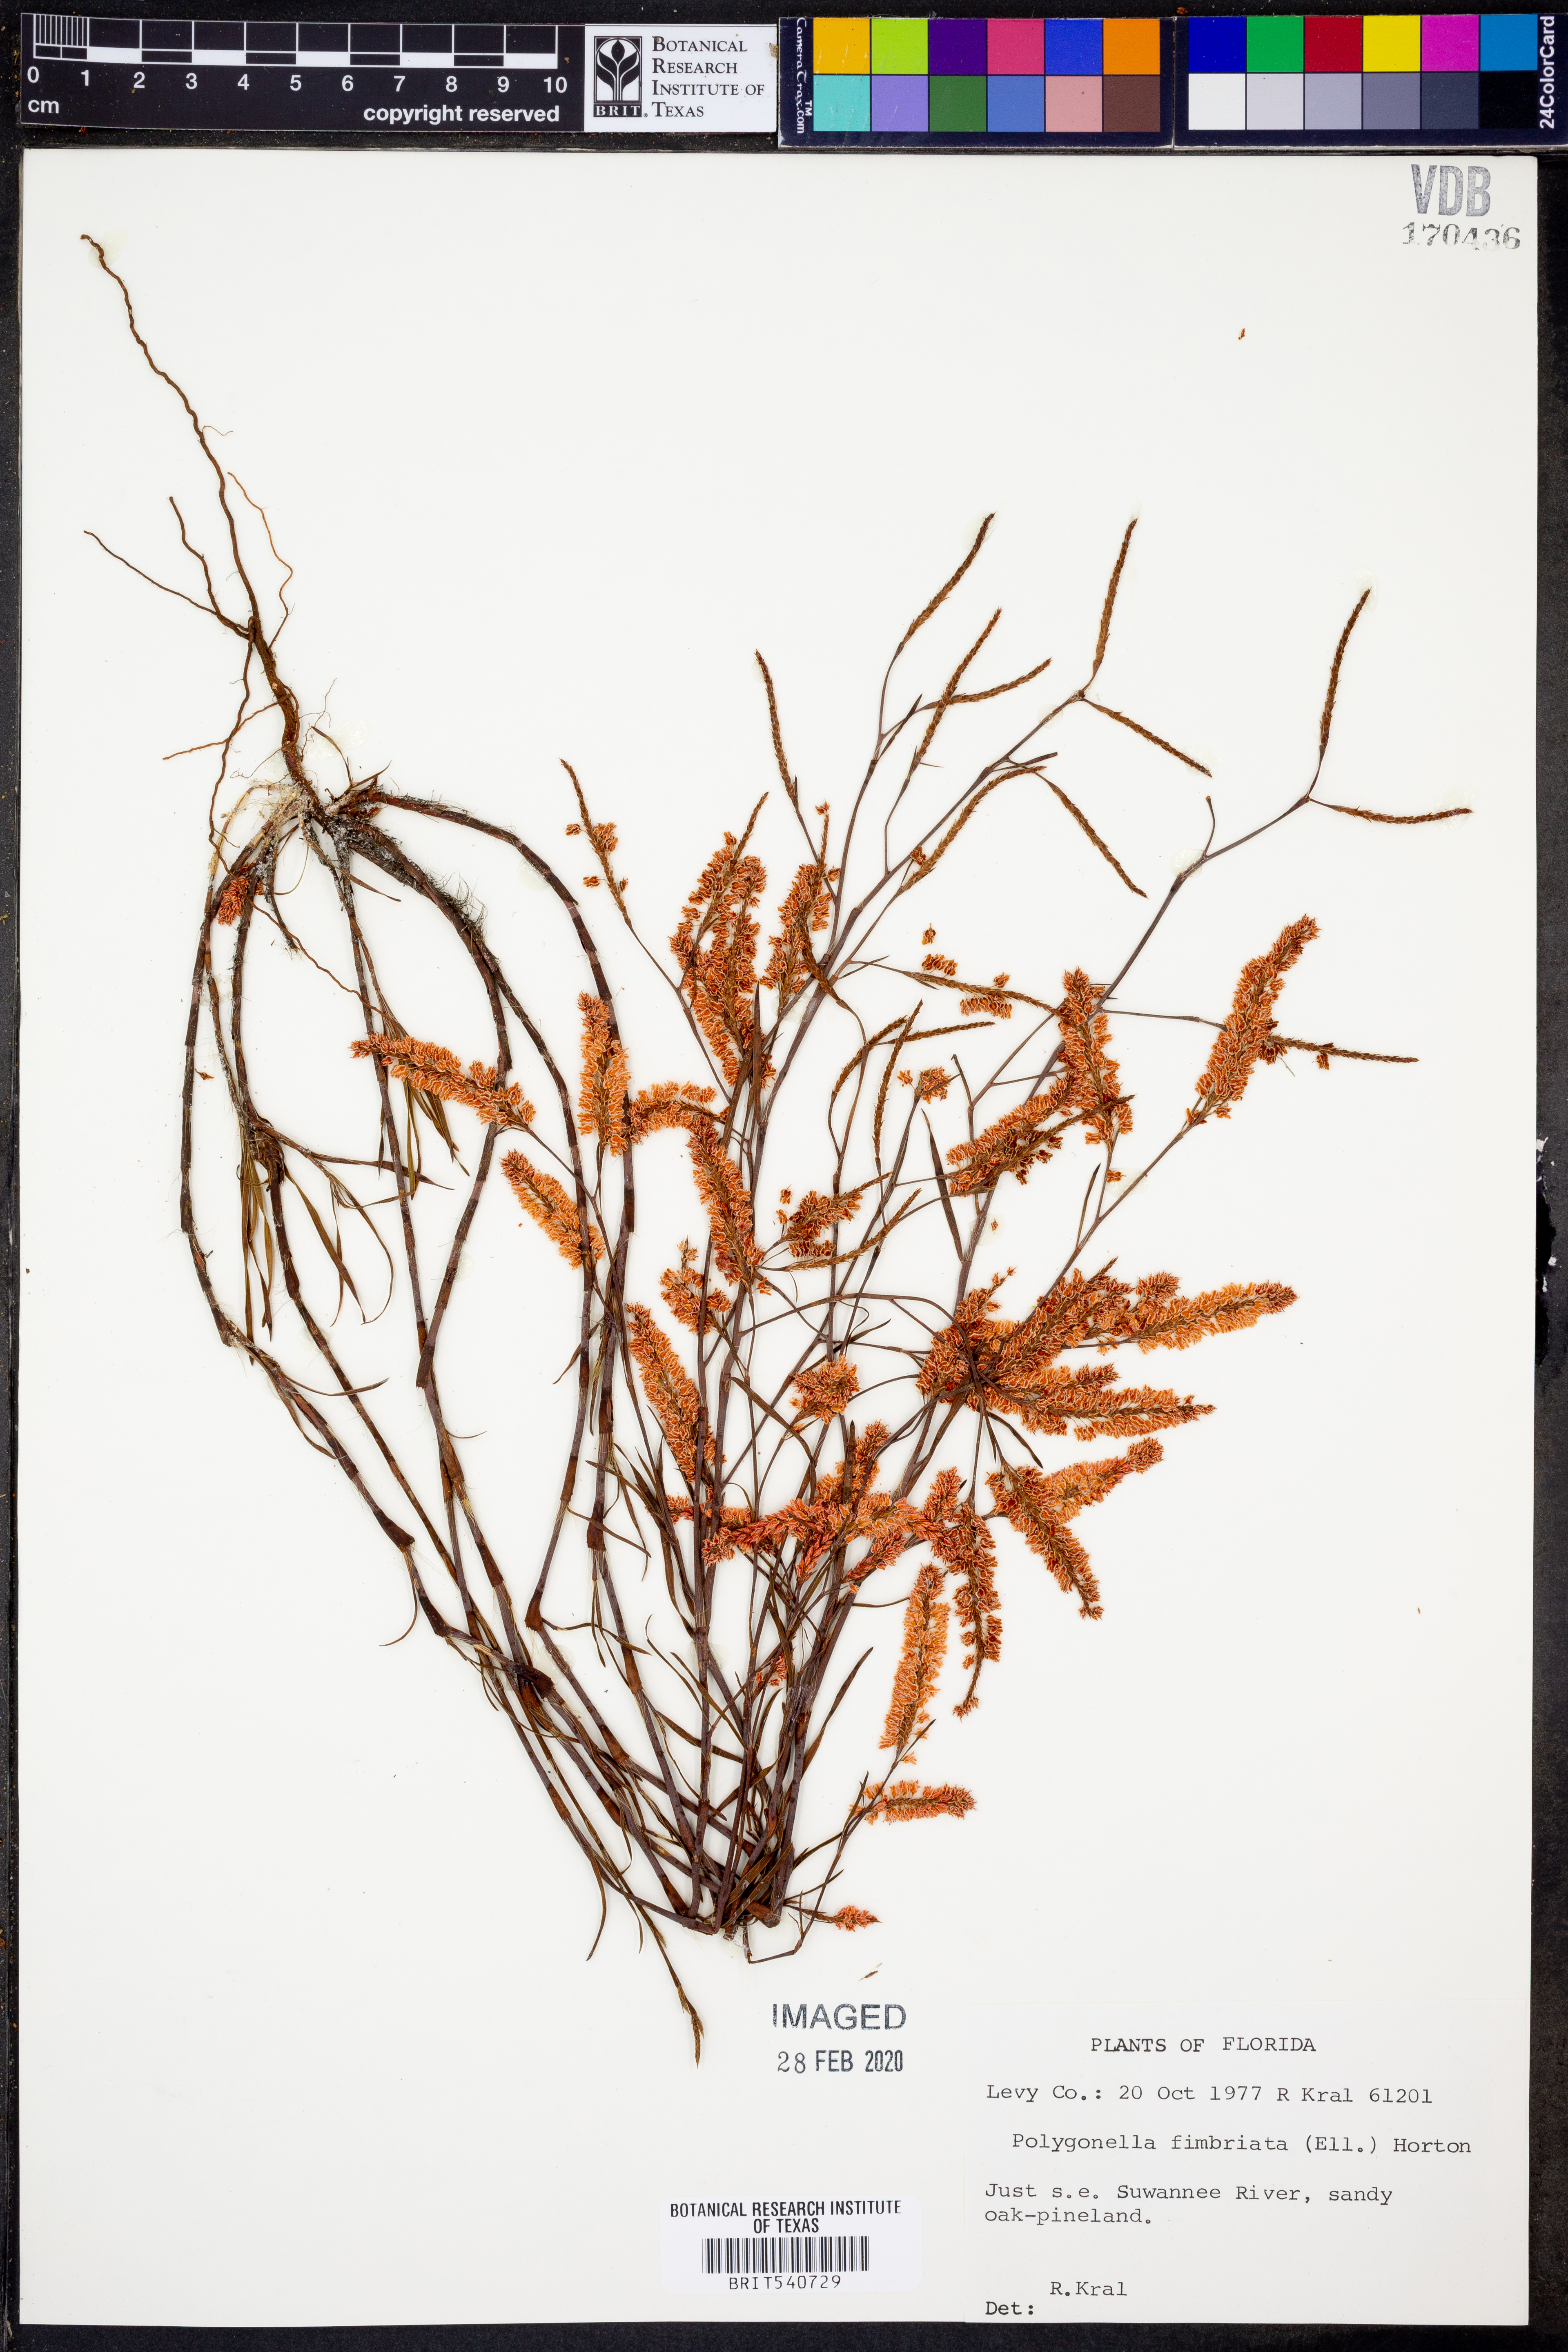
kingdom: Plantae
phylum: Tracheophyta
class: Magnoliopsida
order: Caryophyllales
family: Polygonaceae
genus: Polygonella
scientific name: Polygonella fimbriata
